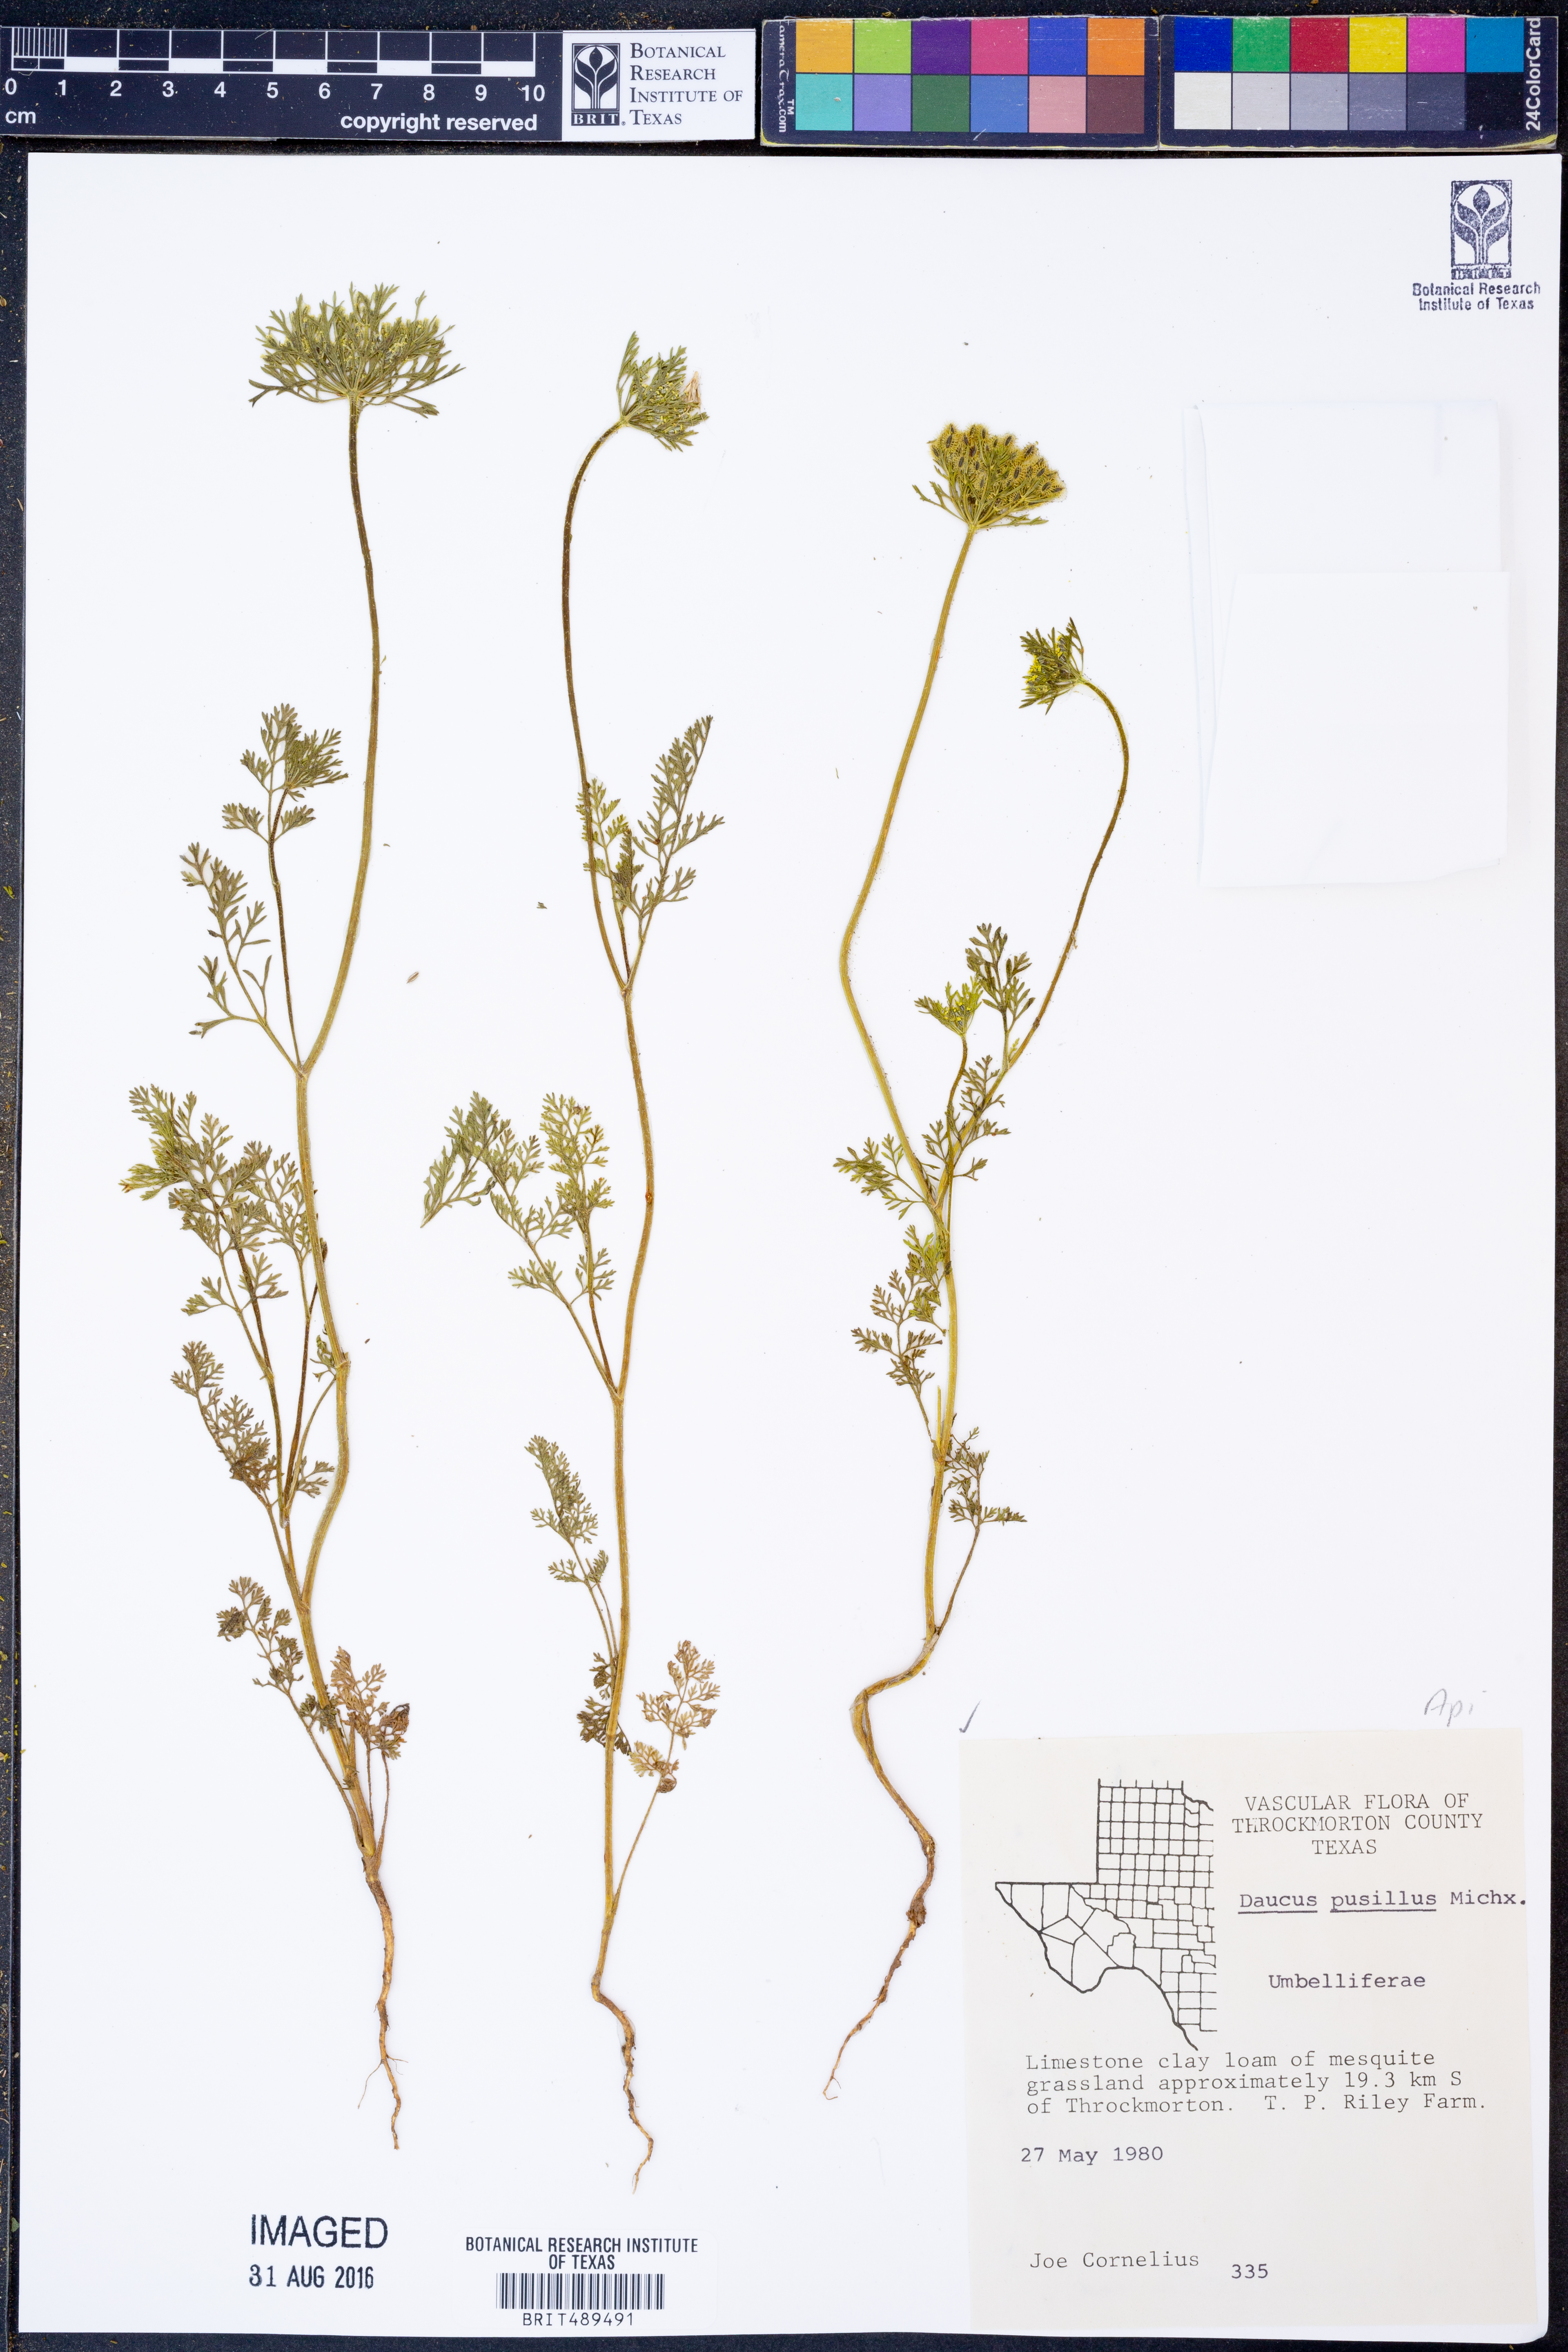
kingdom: Plantae
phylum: Tracheophyta
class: Magnoliopsida
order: Apiales
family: Apiaceae
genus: Daucus
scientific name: Daucus pusillus
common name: Southwest wild carrot
